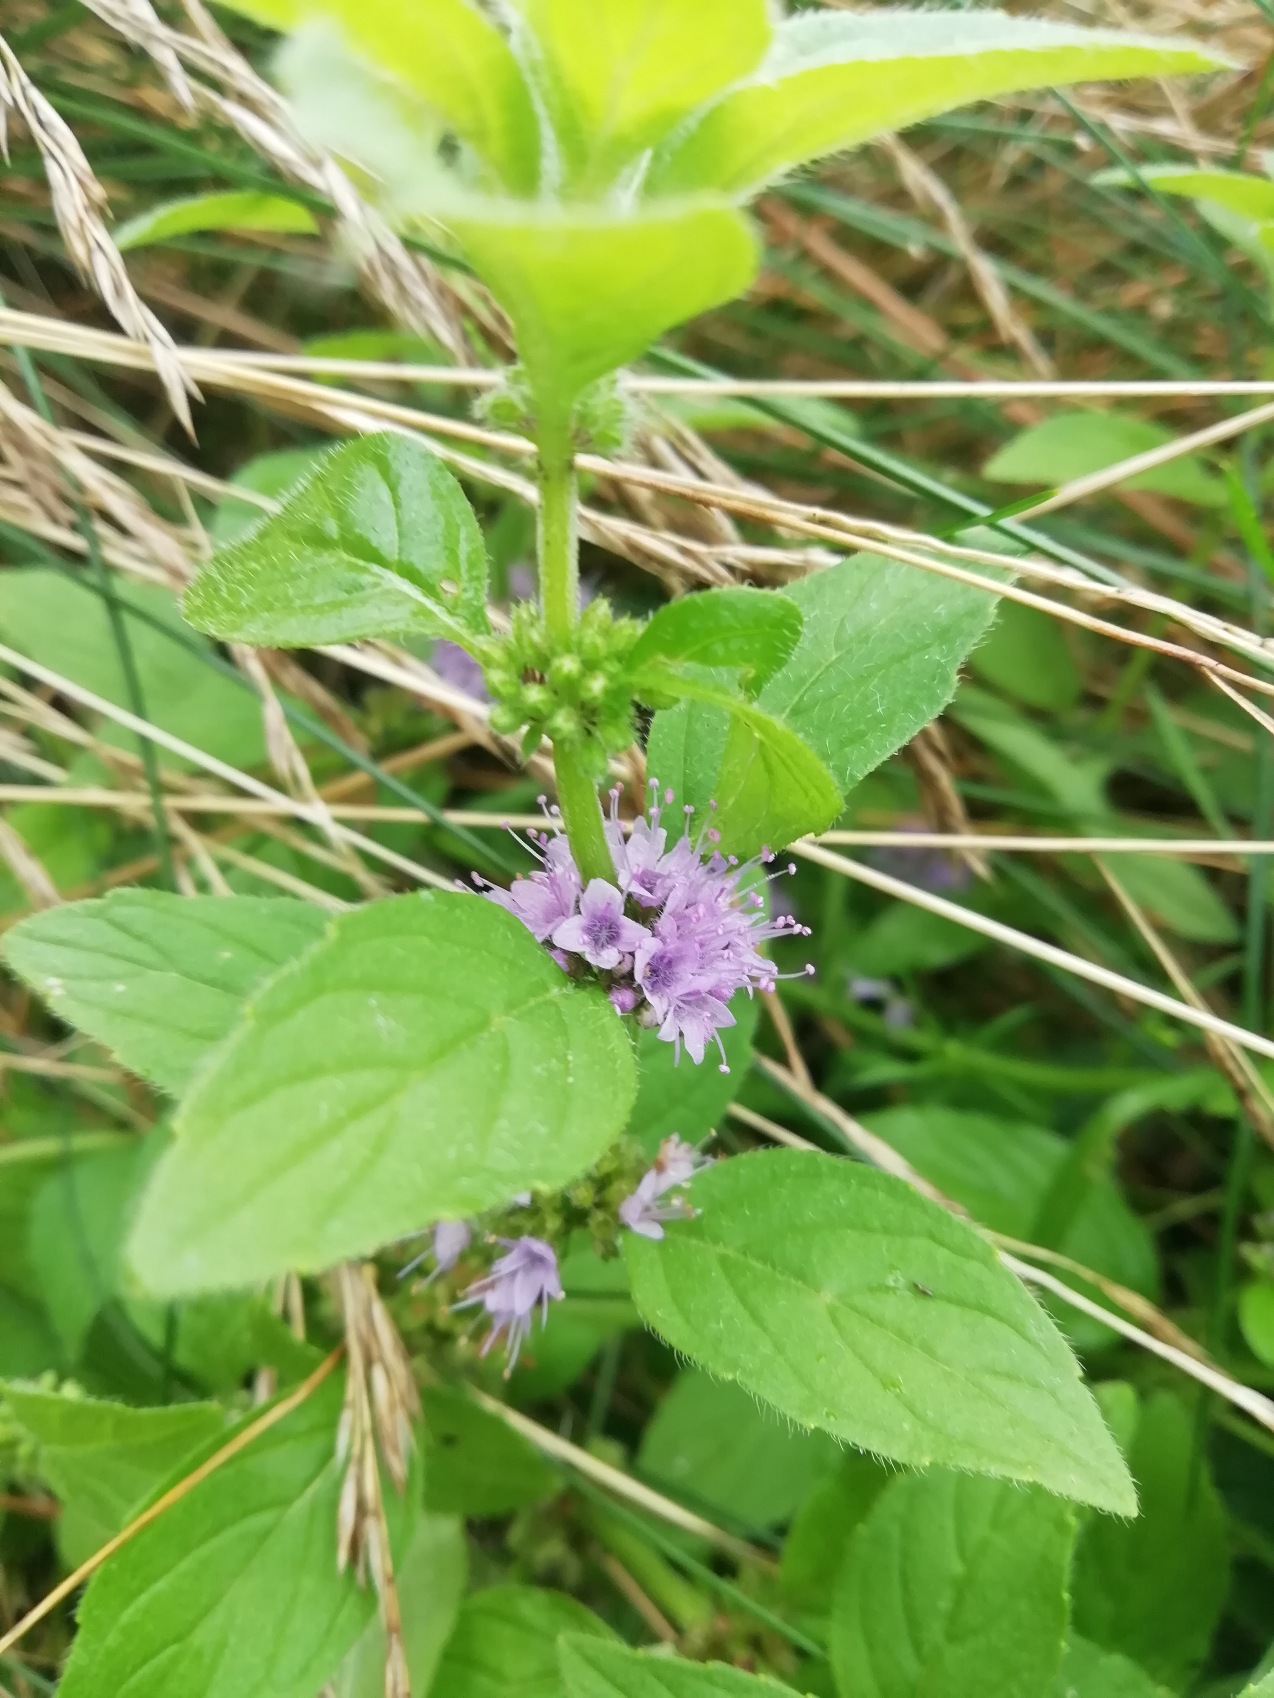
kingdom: Plantae
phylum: Tracheophyta
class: Magnoliopsida
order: Lamiales
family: Lamiaceae
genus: Mentha
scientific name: Mentha arvensis
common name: Ager-mynte
